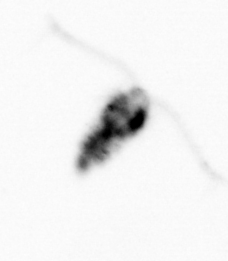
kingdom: Animalia
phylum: Arthropoda
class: Copepoda
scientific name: Copepoda
